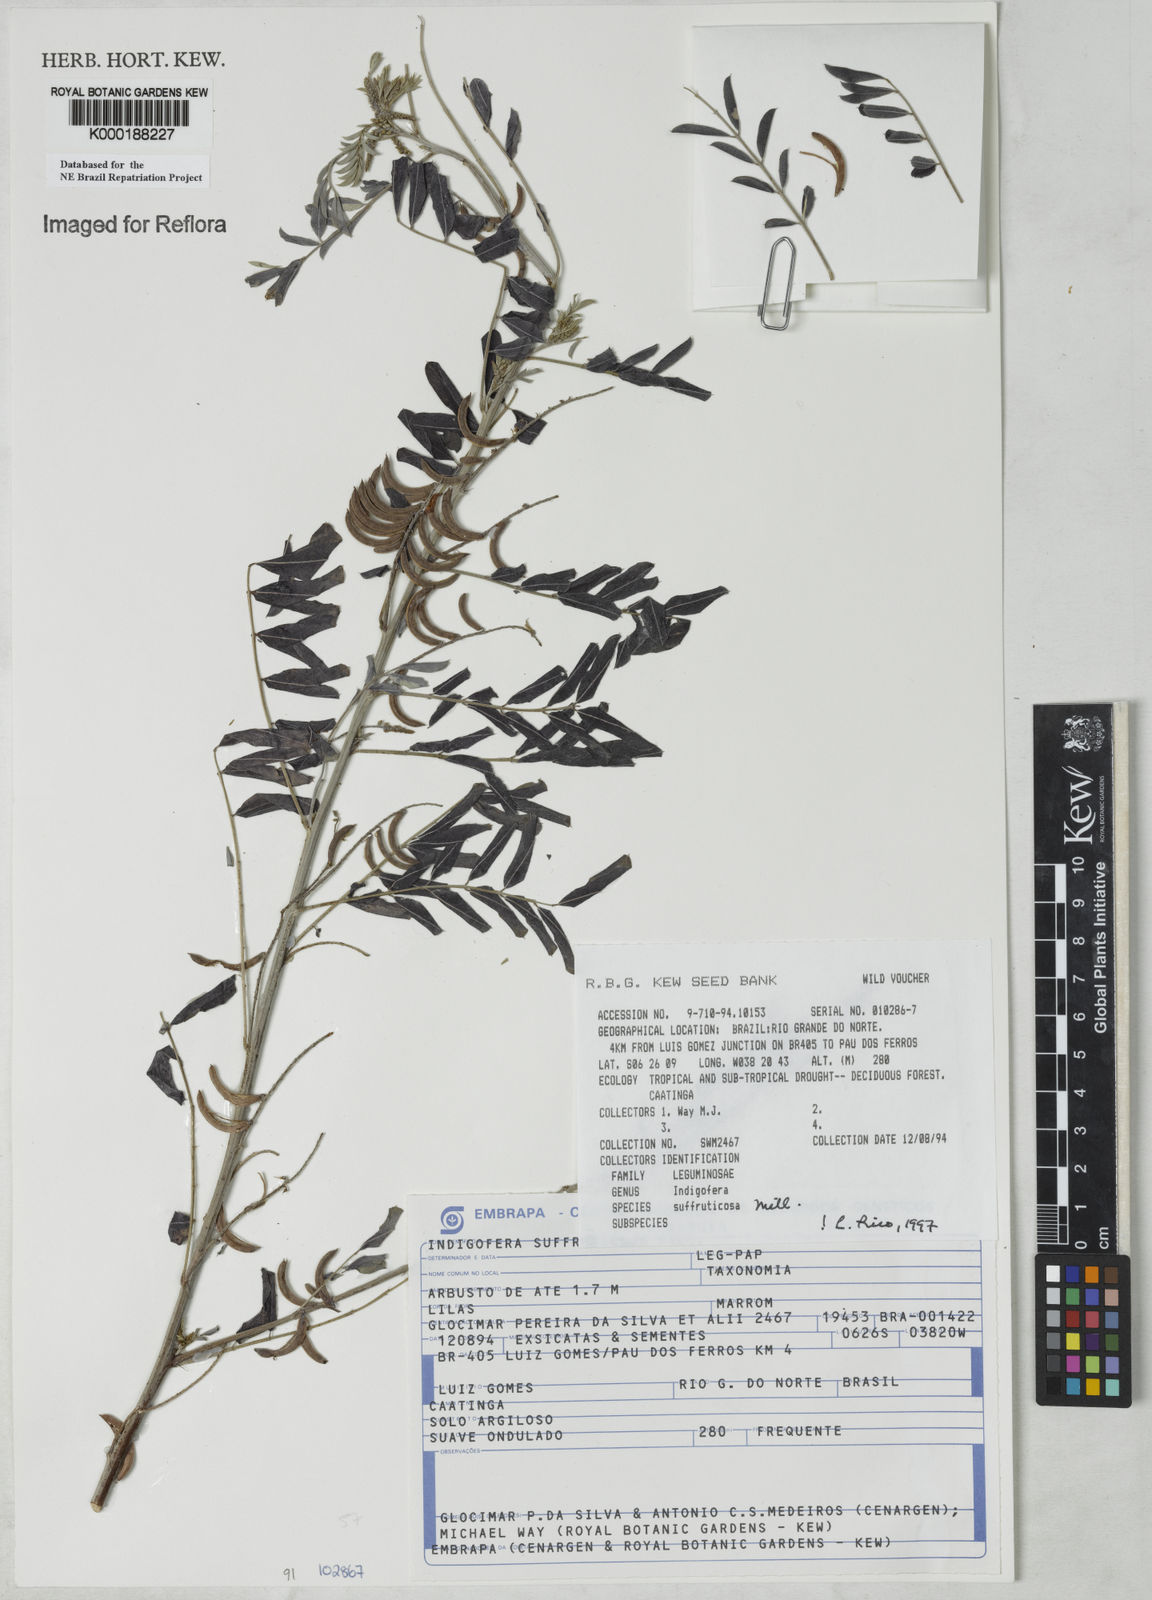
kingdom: Plantae
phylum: Tracheophyta
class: Magnoliopsida
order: Fabales
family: Fabaceae
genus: Indigofera
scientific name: Indigofera suffruticosa
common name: Anil de pasto
